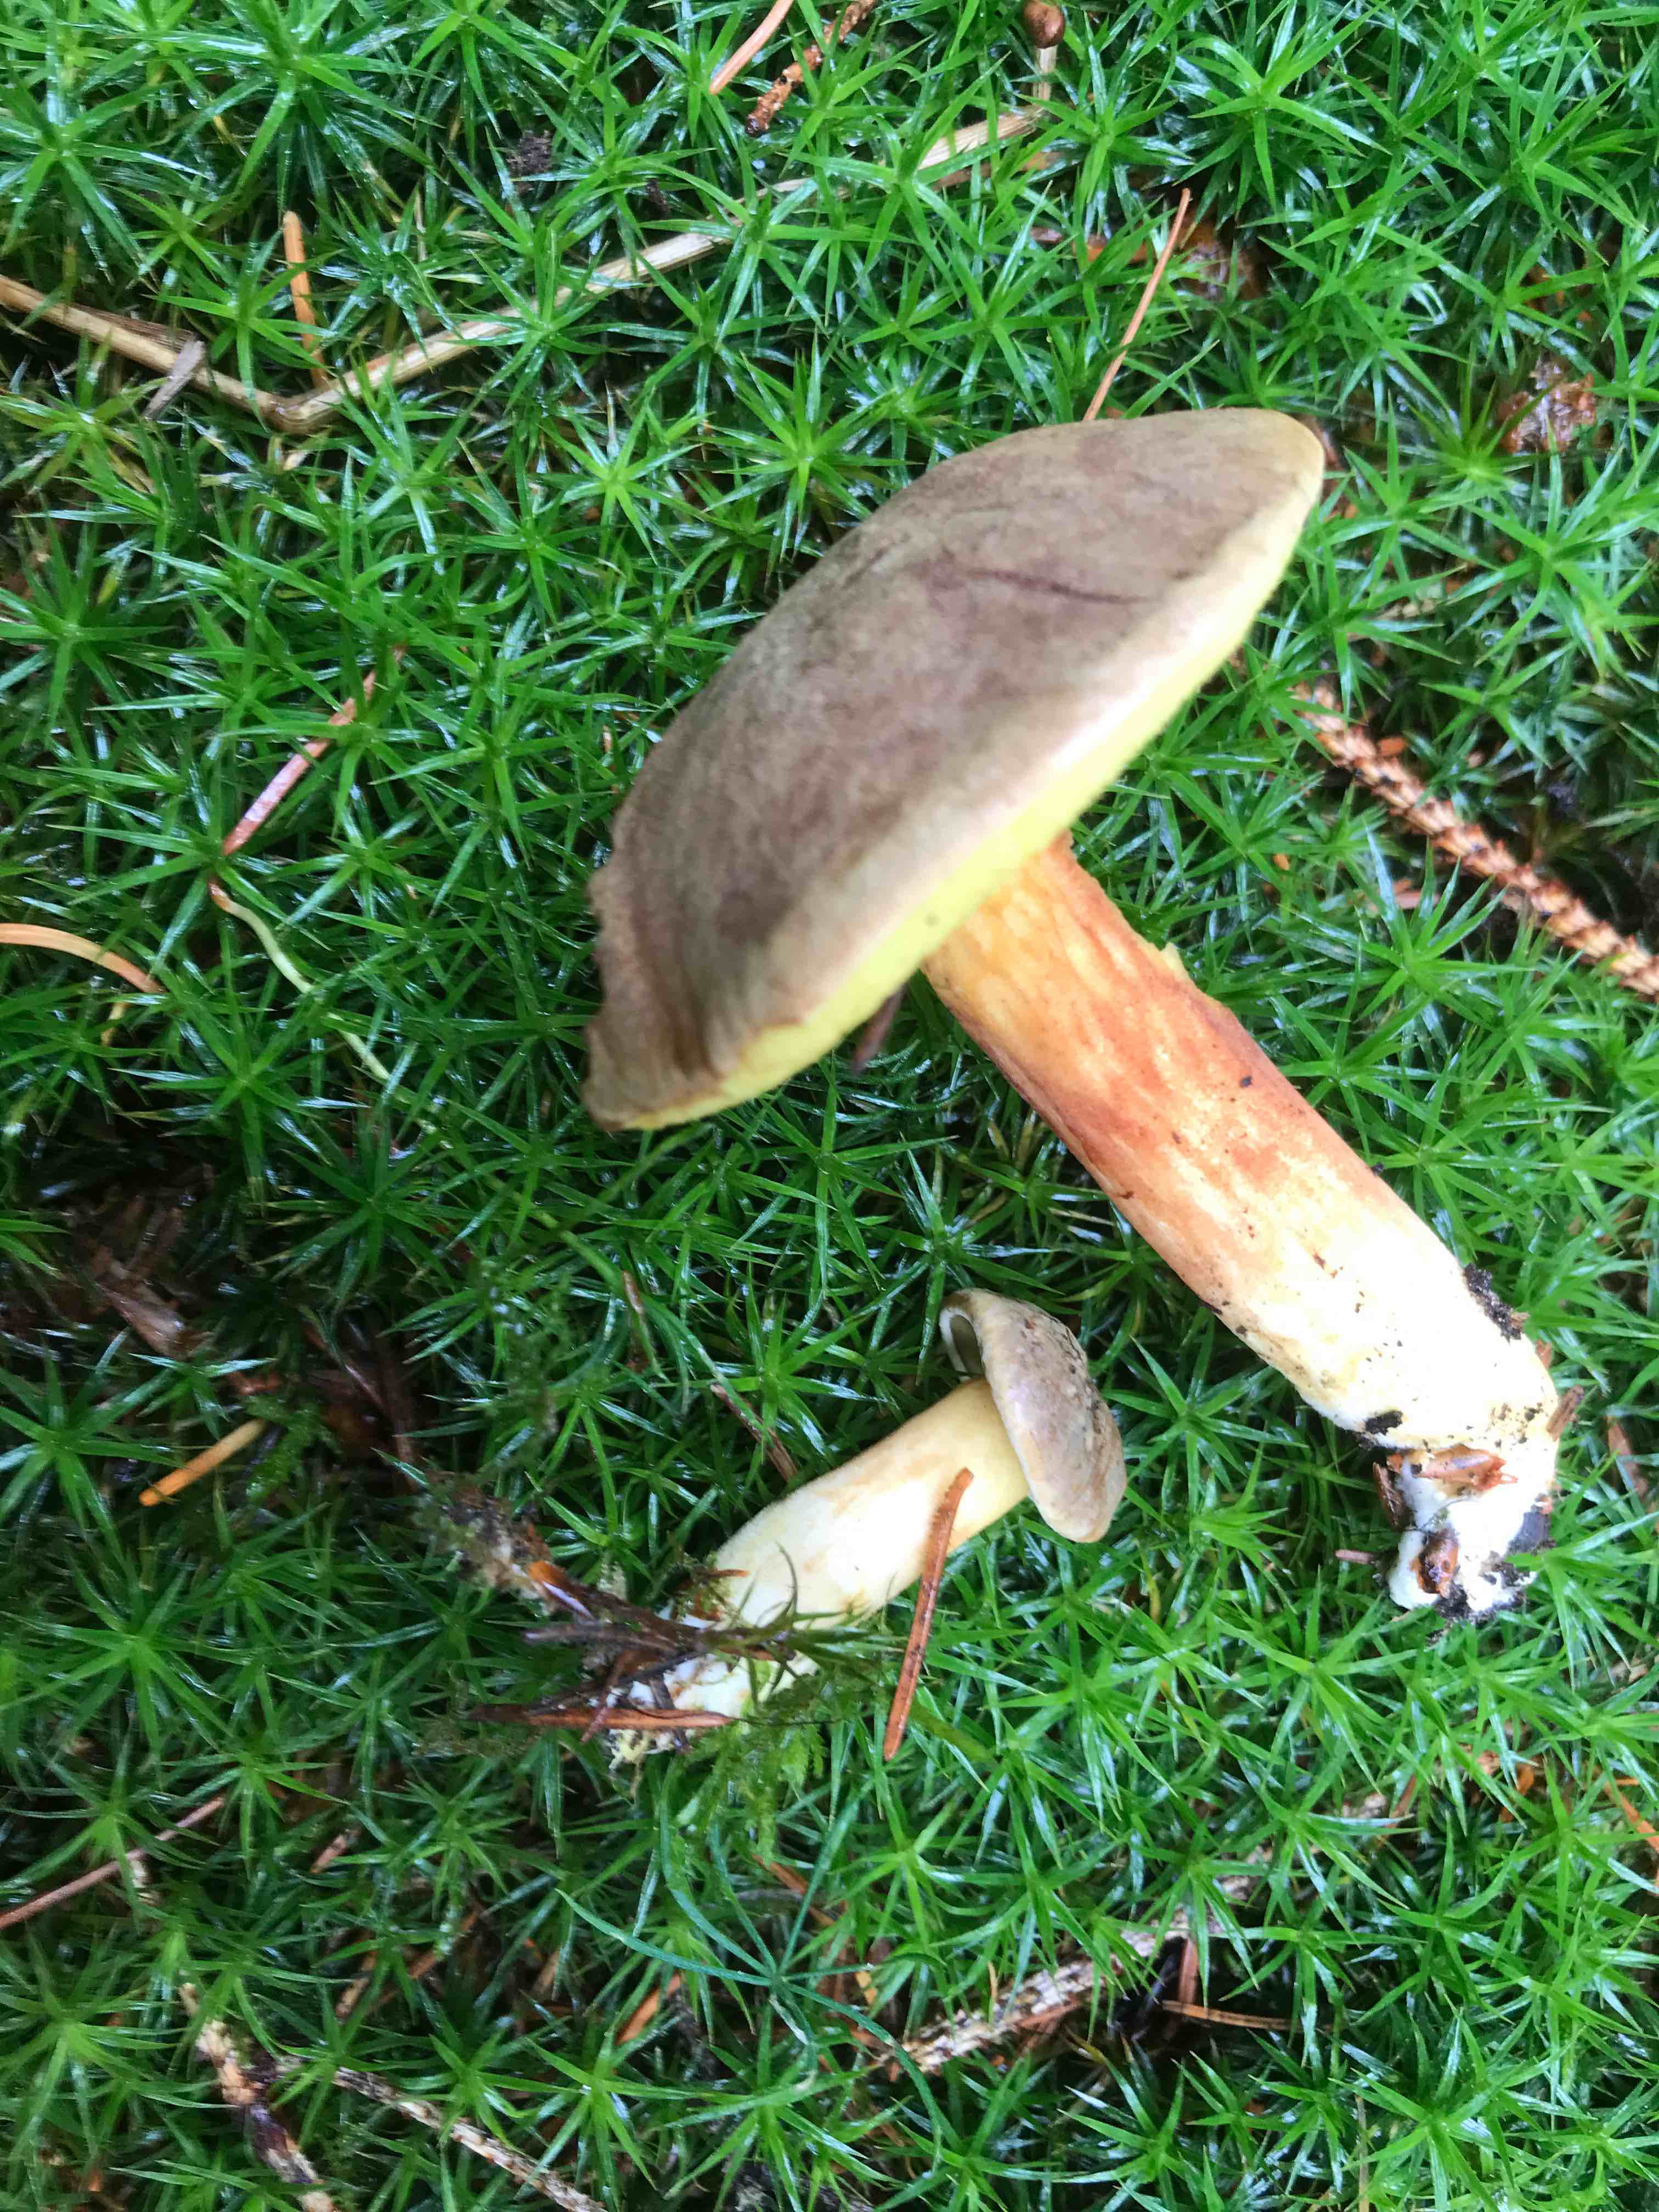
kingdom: Fungi
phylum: Basidiomycota
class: Agaricomycetes
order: Boletales
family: Boletaceae
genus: Xerocomus
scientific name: Xerocomus ferrugineus
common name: vaskeskinds-rørhat
